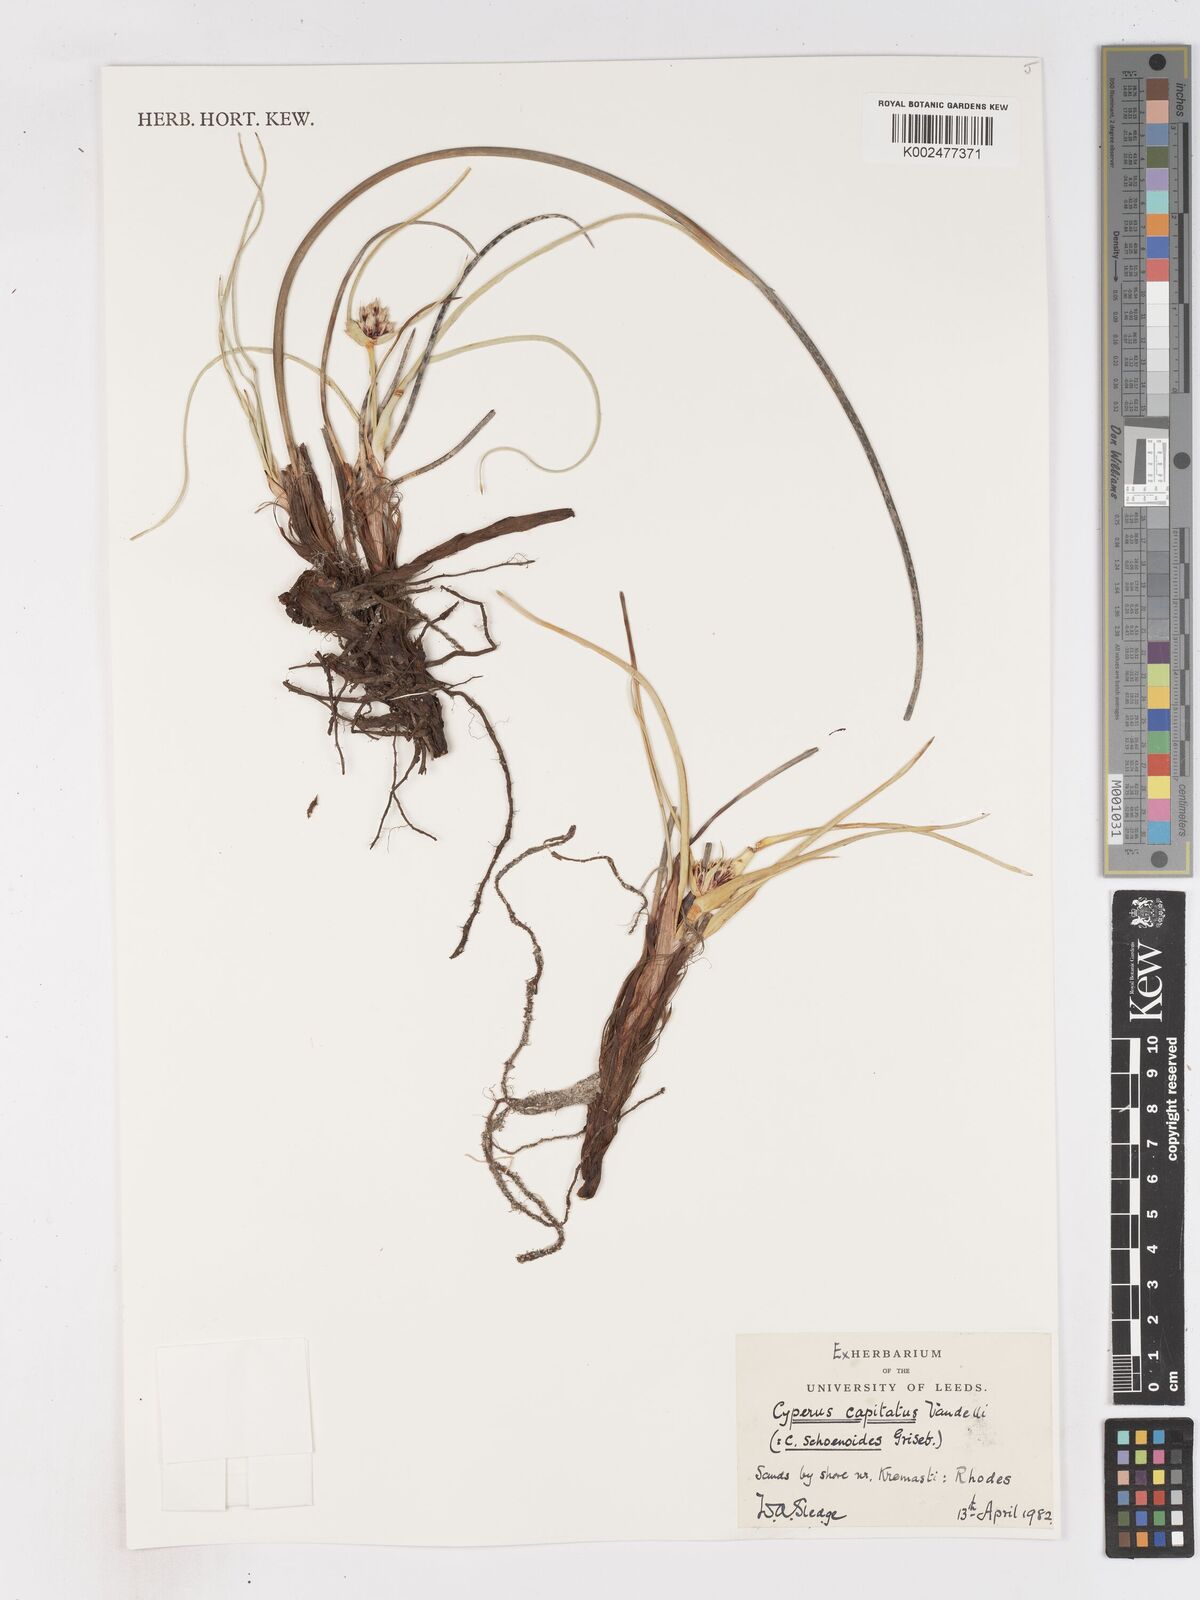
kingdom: Plantae
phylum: Tracheophyta
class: Liliopsida
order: Poales
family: Cyperaceae
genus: Cyperus
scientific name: Cyperus capitatus
